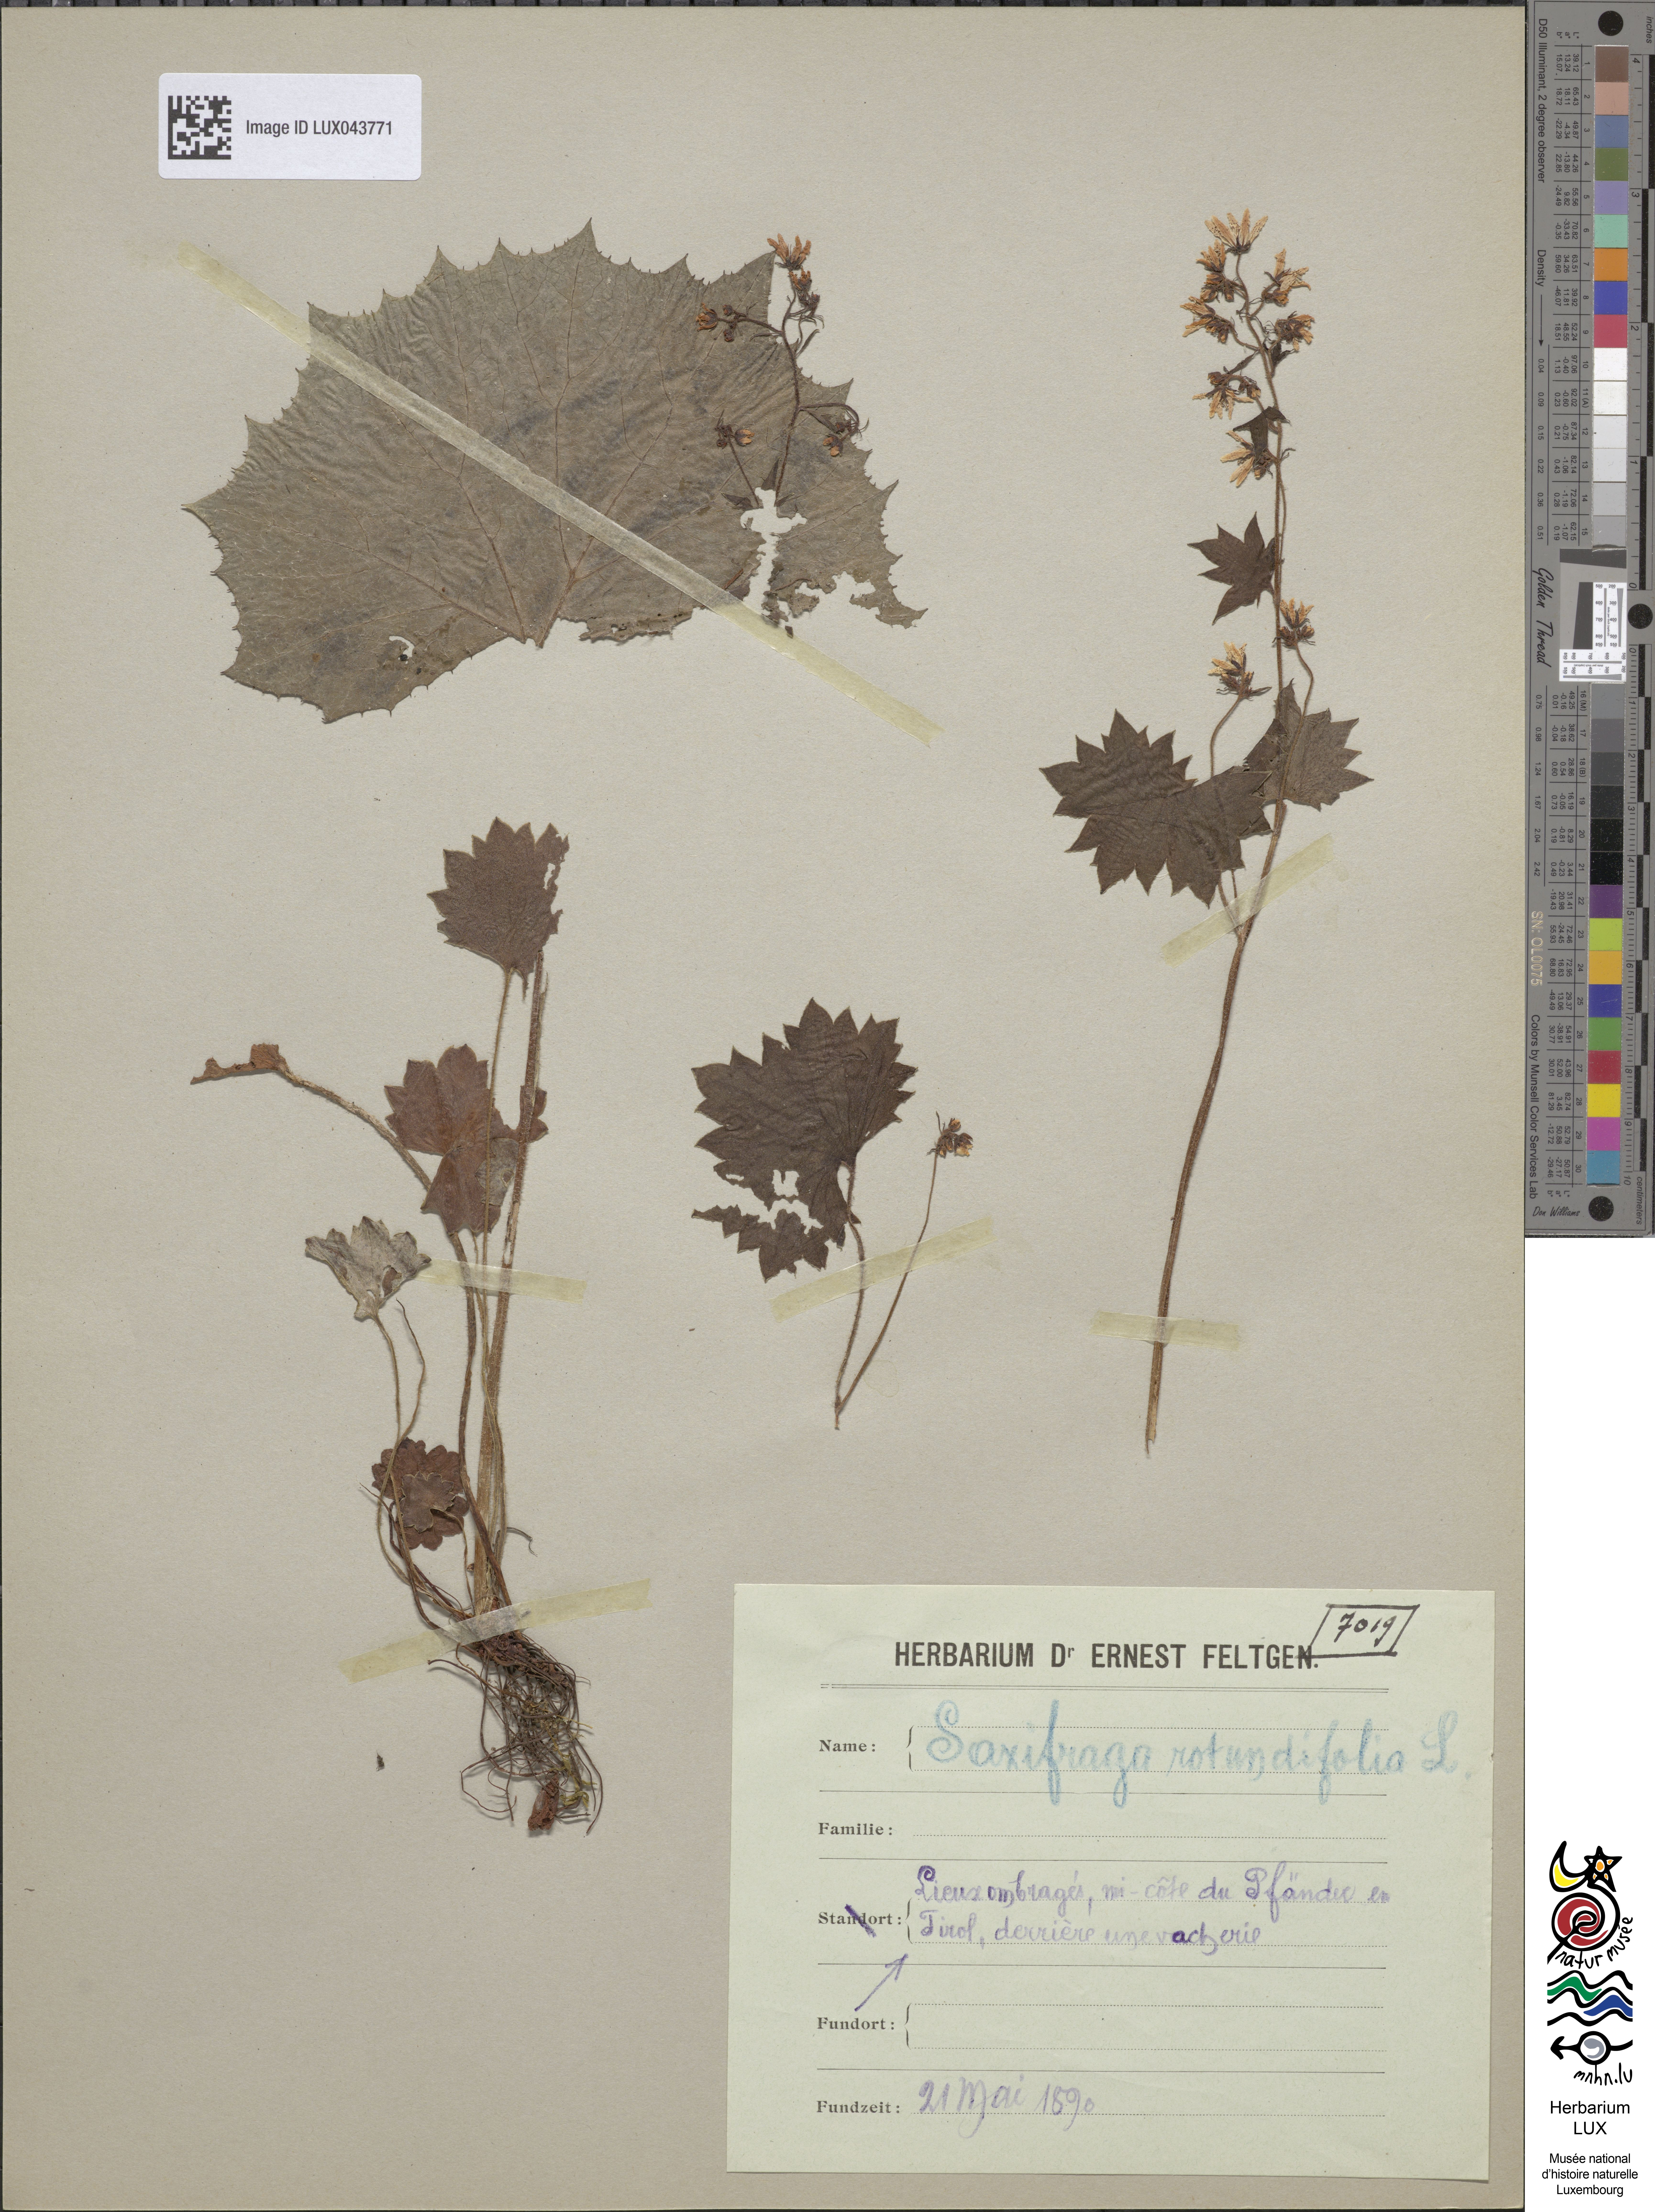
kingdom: Plantae
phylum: Tracheophyta
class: Magnoliopsida
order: Saxifragales
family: Saxifragaceae
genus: Saxifraga
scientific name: Saxifraga rotundifolia
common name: Round-leaved saxifrage
